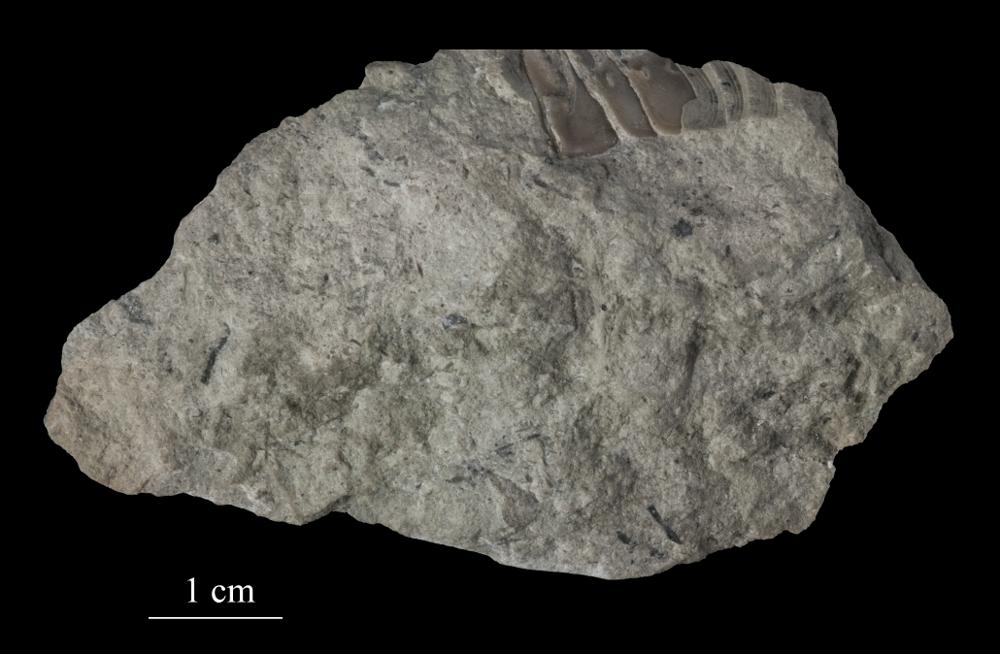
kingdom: Animalia
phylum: Arthropoda
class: Trilobita
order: Asaphida
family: Asaphidae
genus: Asaphus
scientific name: Asaphus ornatus
